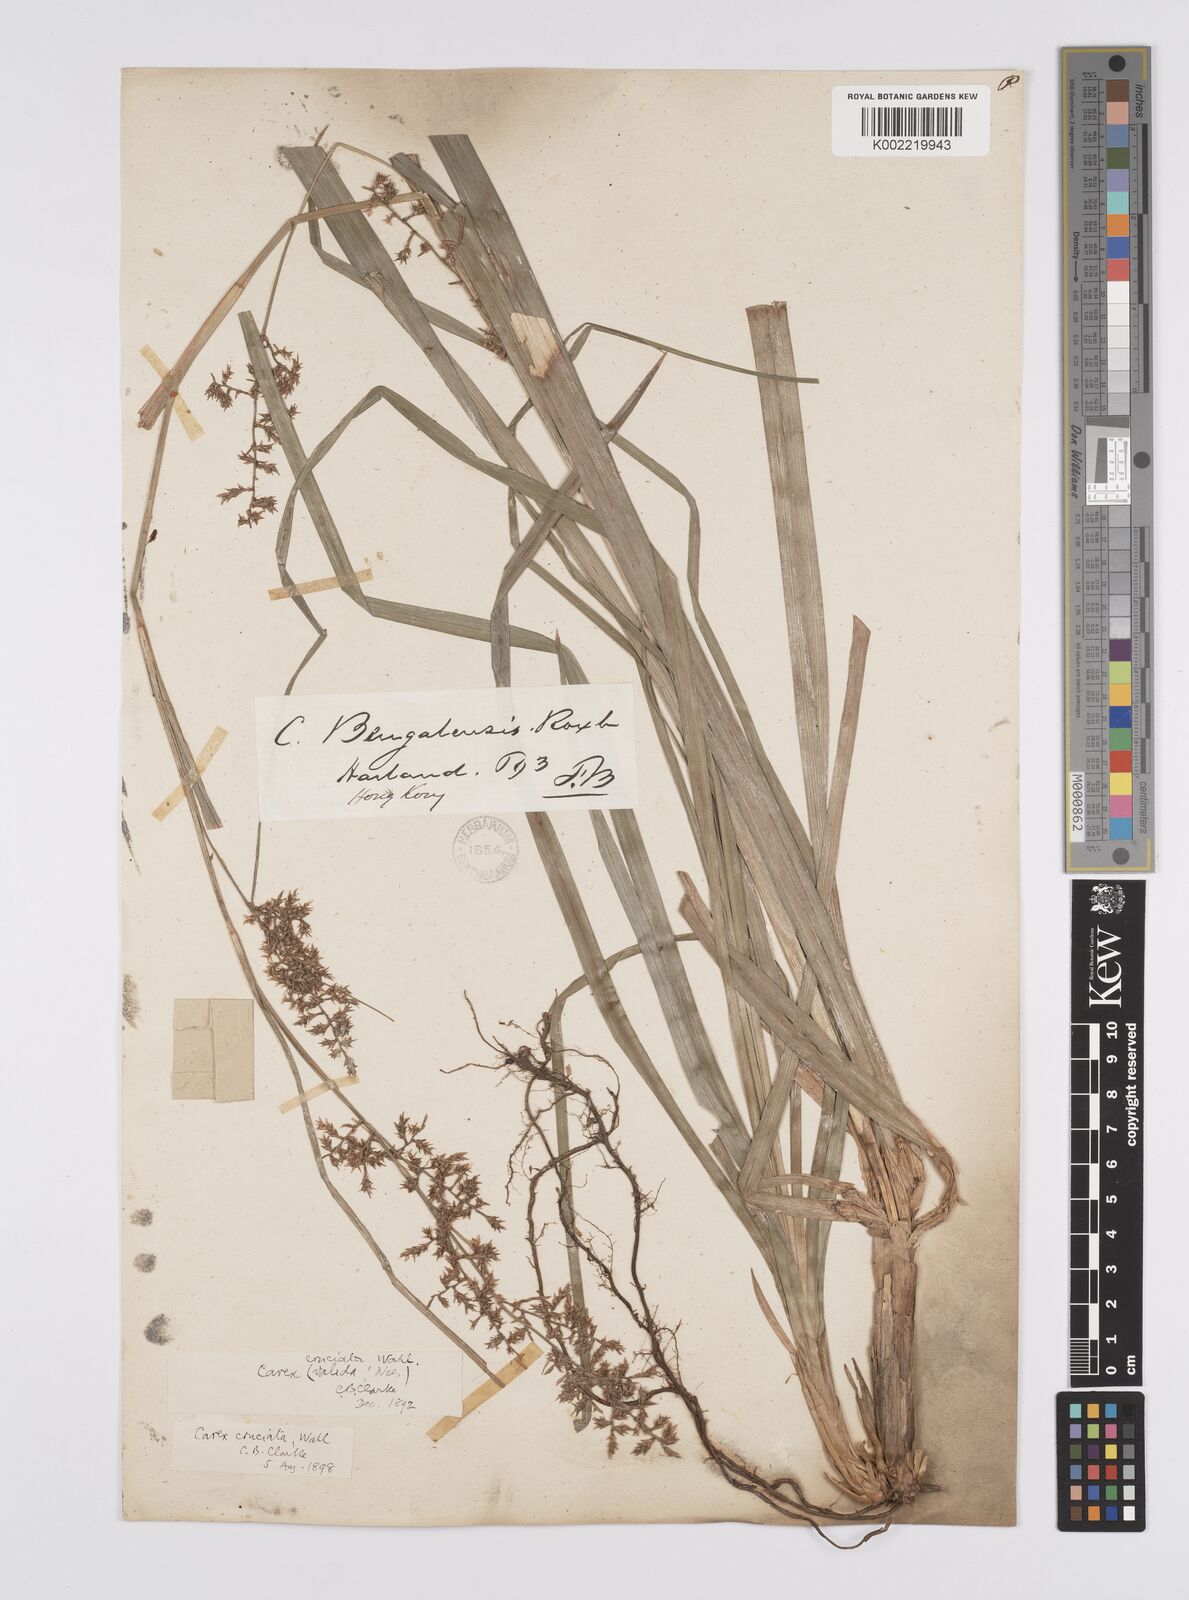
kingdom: Plantae
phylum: Tracheophyta
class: Liliopsida
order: Poales
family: Cyperaceae
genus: Carex
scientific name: Carex cruciata
